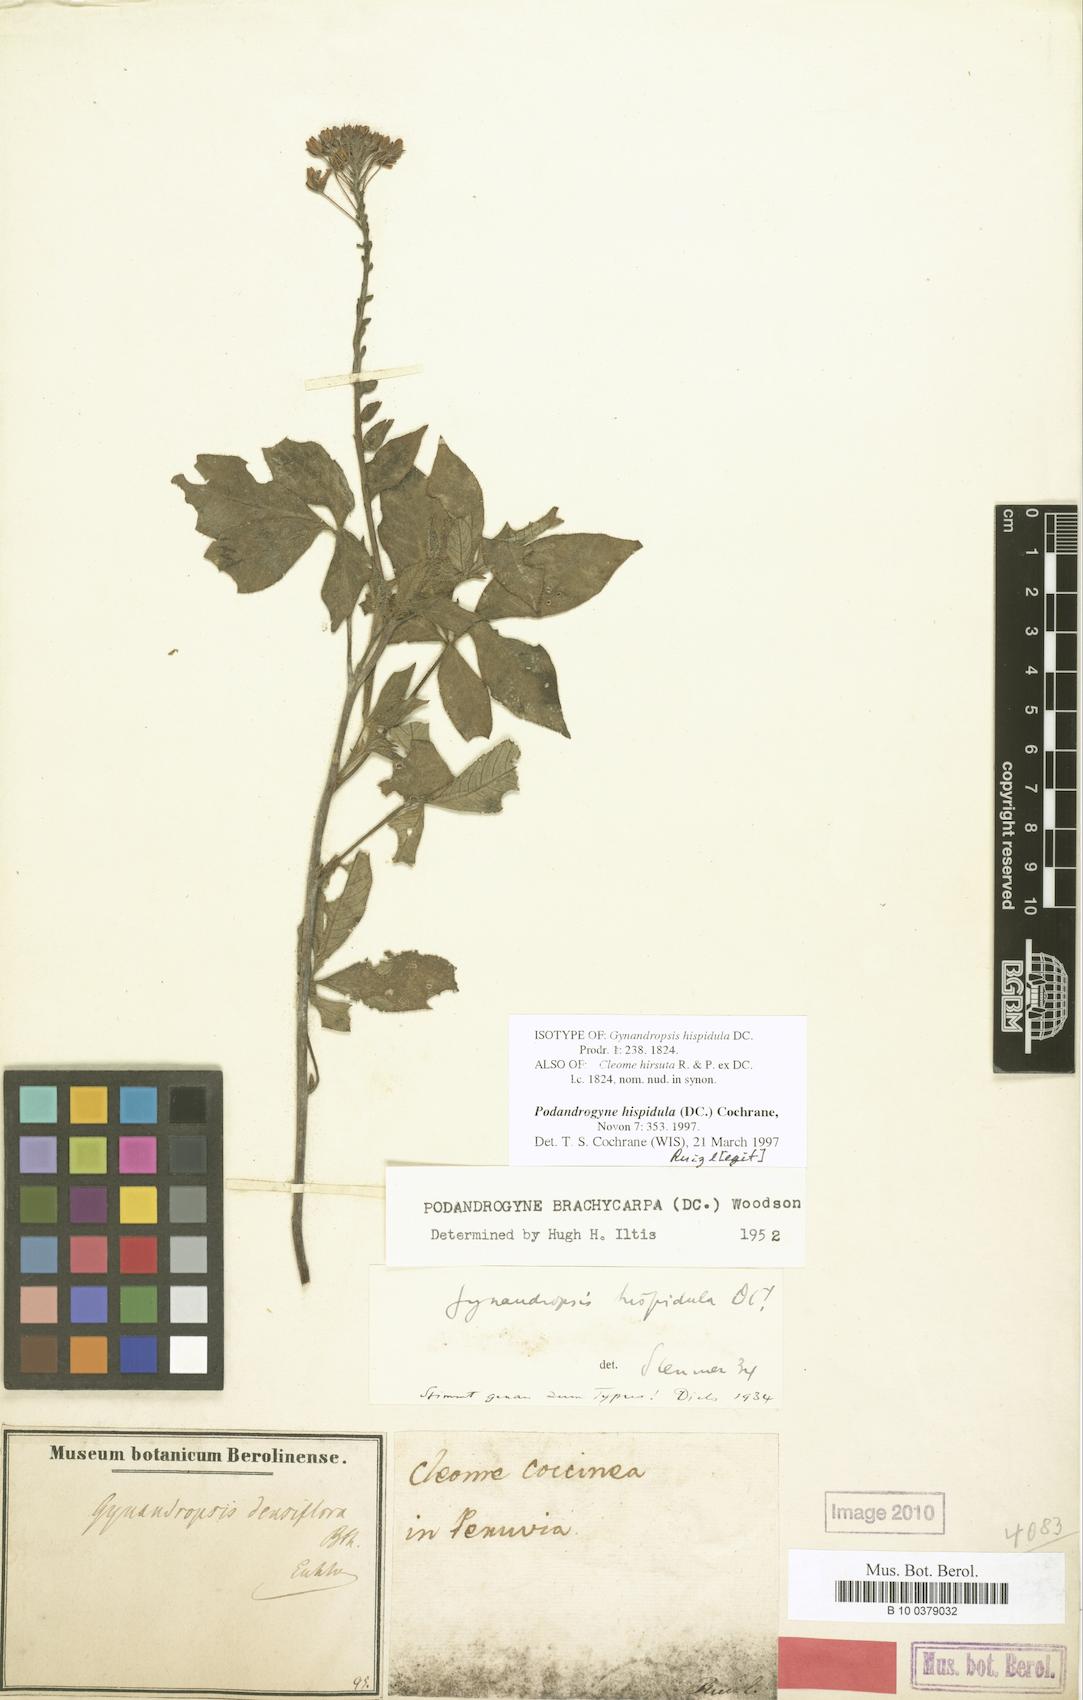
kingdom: Plantae
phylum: Tracheophyta
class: Magnoliopsida
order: Brassicales
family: Cleomaceae
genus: Podandrogyne
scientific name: Podandrogyne hispidula
